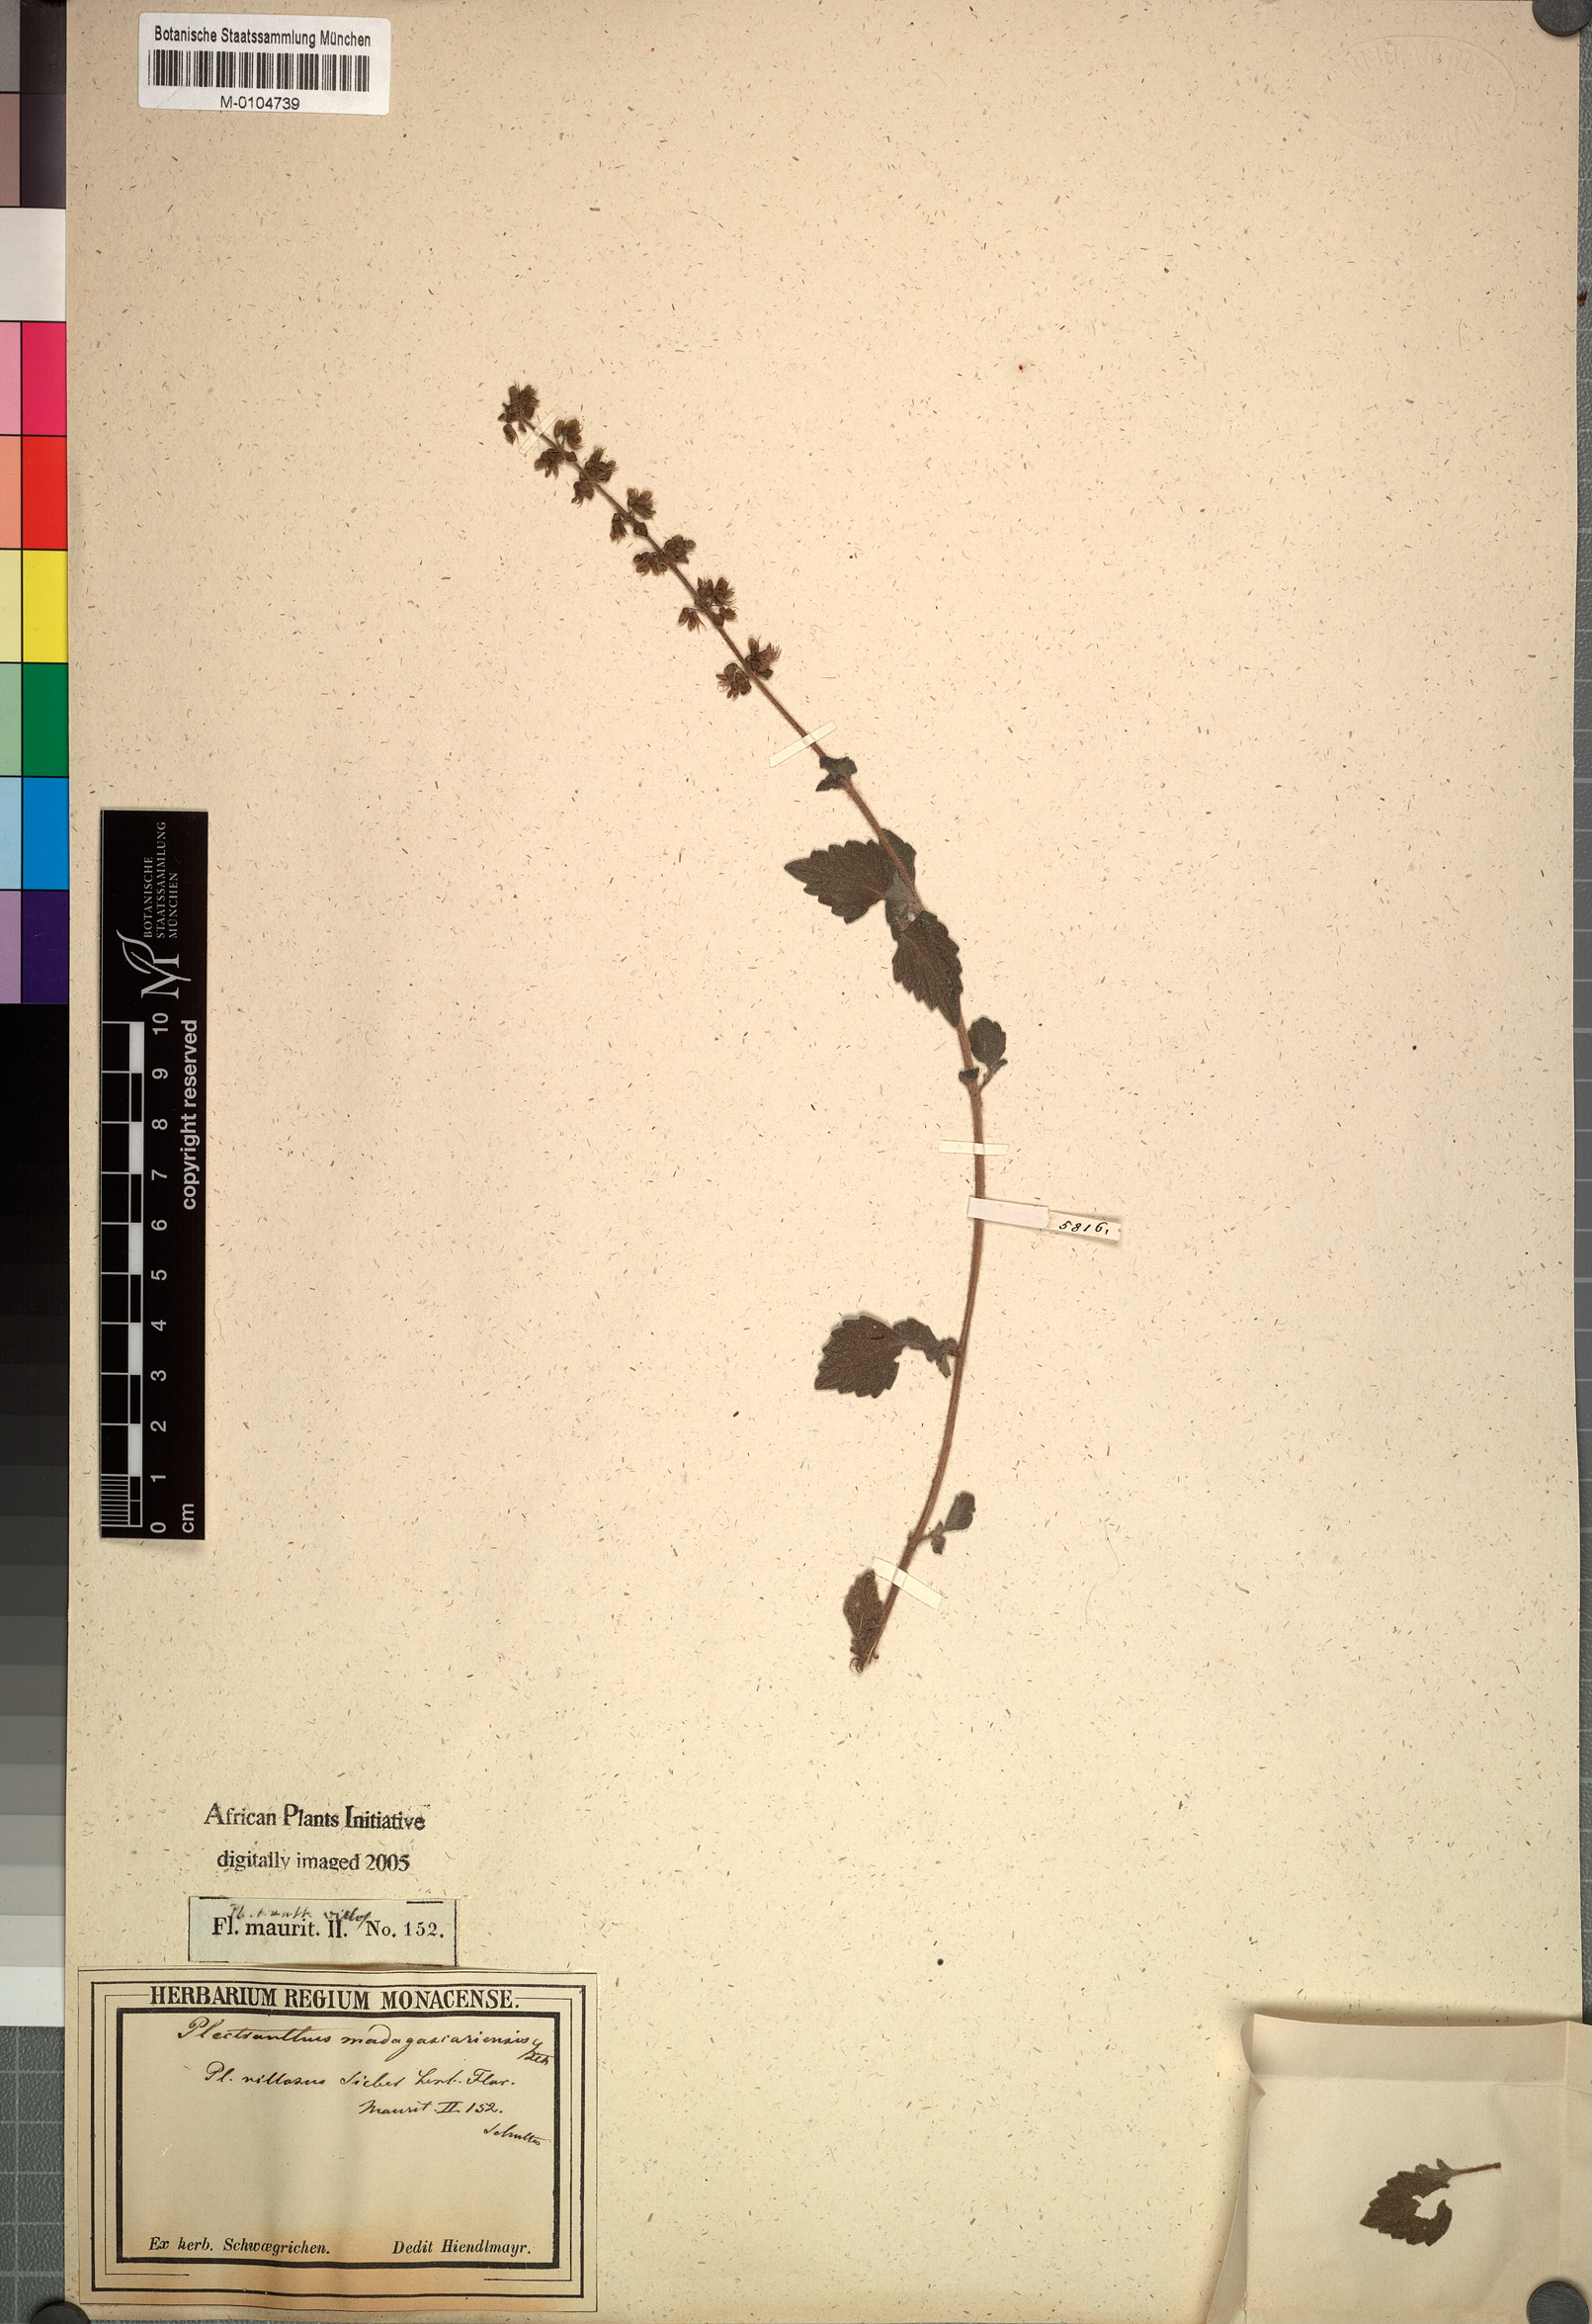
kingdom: Plantae
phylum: Tracheophyta
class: Magnoliopsida
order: Lamiales
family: Lamiaceae
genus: Coleus
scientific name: Coleus madagascariensis
